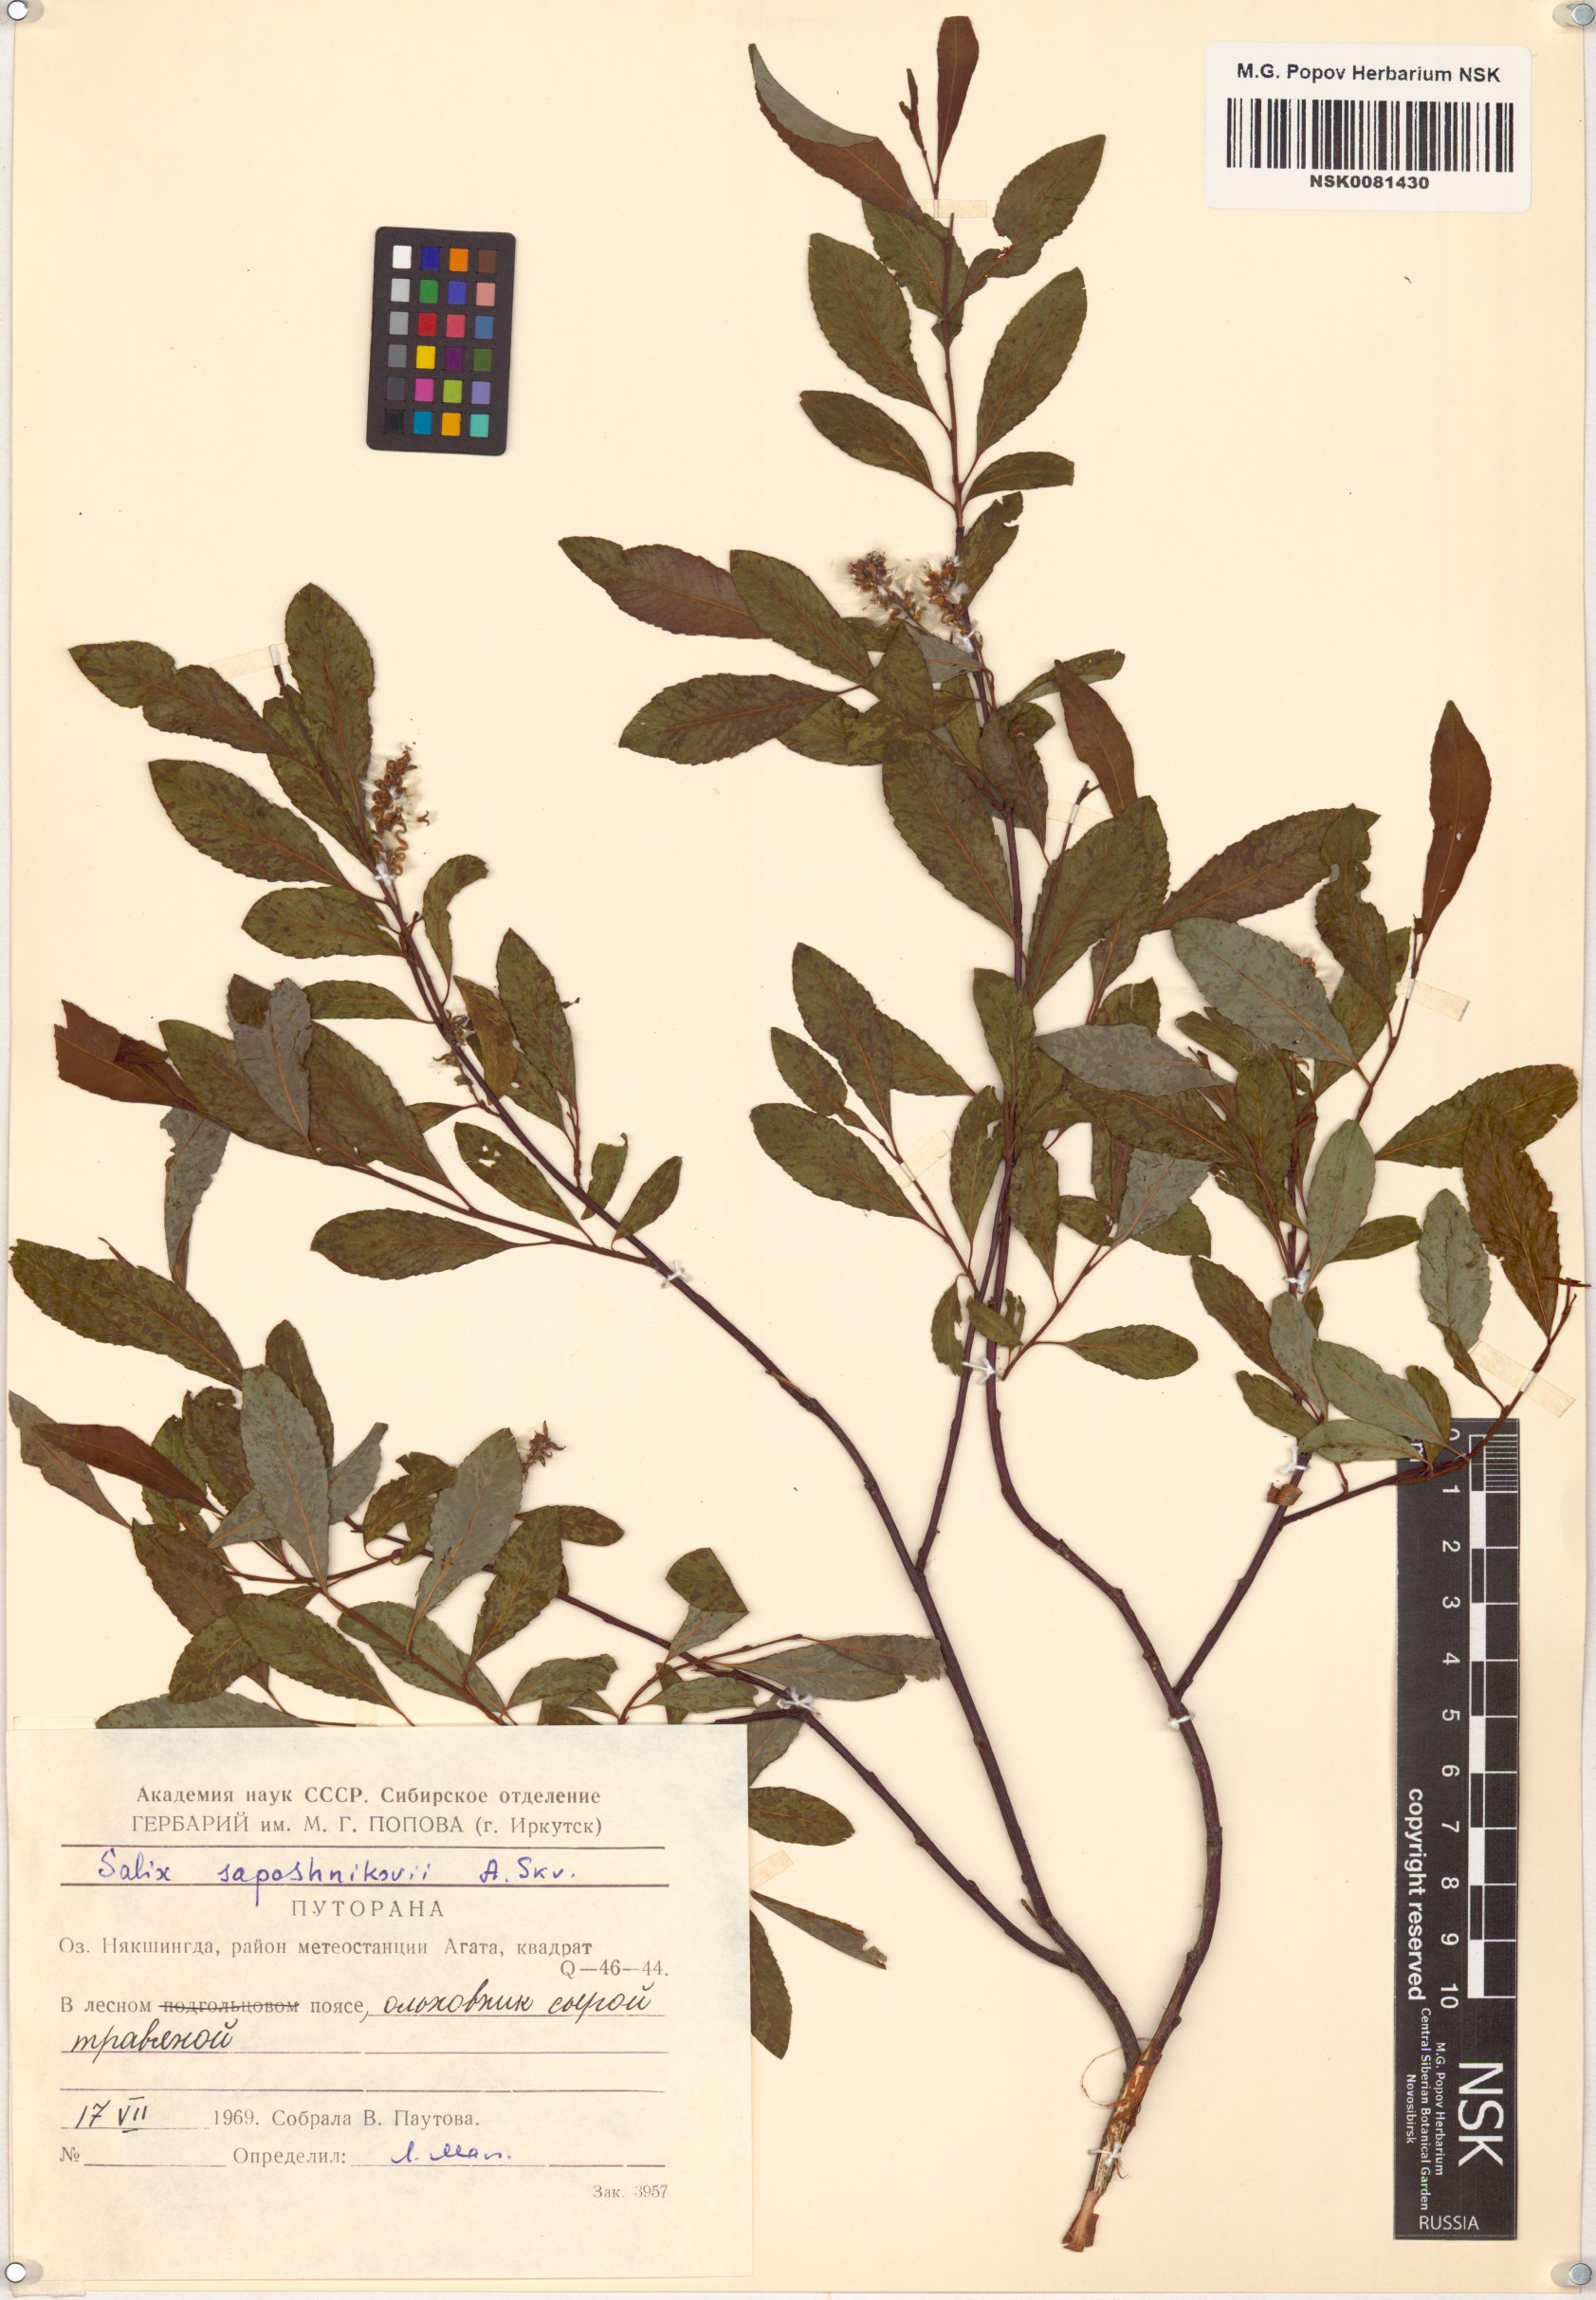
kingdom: Plantae
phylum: Tracheophyta
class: Magnoliopsida
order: Malpighiales
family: Salicaceae
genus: Salix
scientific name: Salix saposhnikovii
